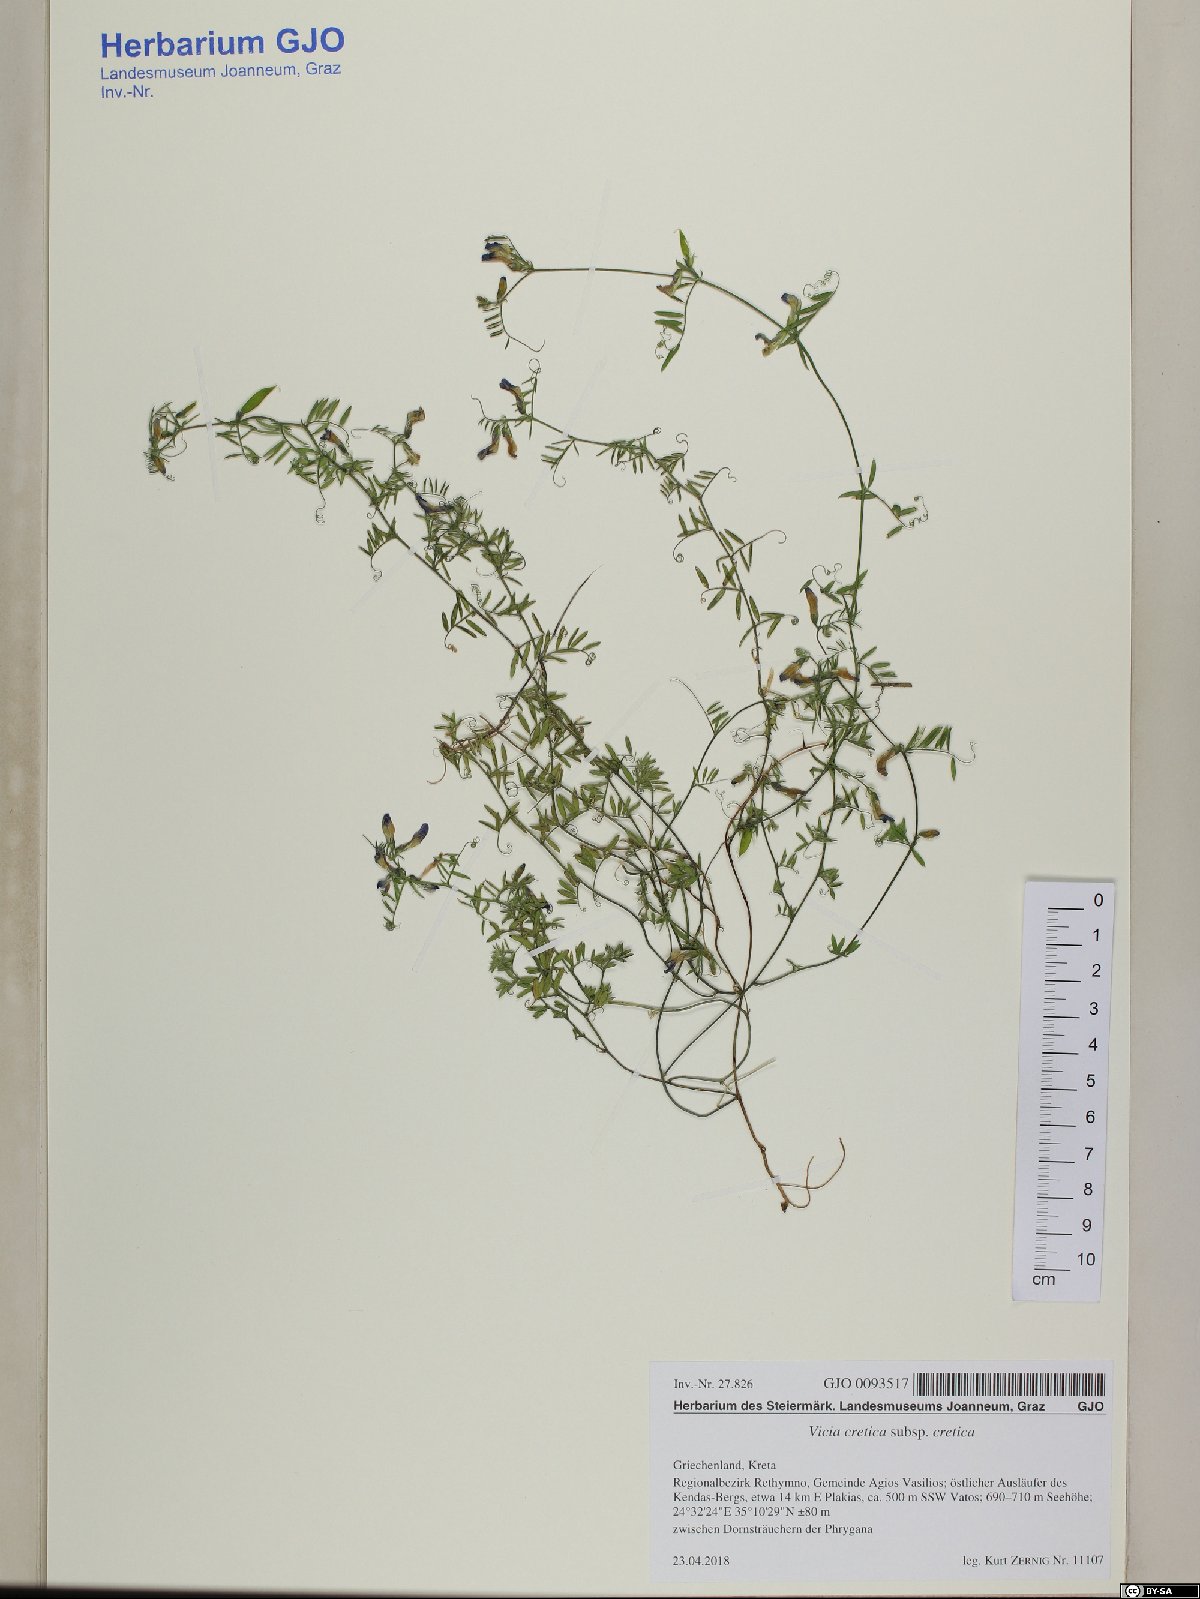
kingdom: Plantae
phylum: Tracheophyta
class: Magnoliopsida
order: Fabales
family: Fabaceae
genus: Vicia
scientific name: Vicia cretica
